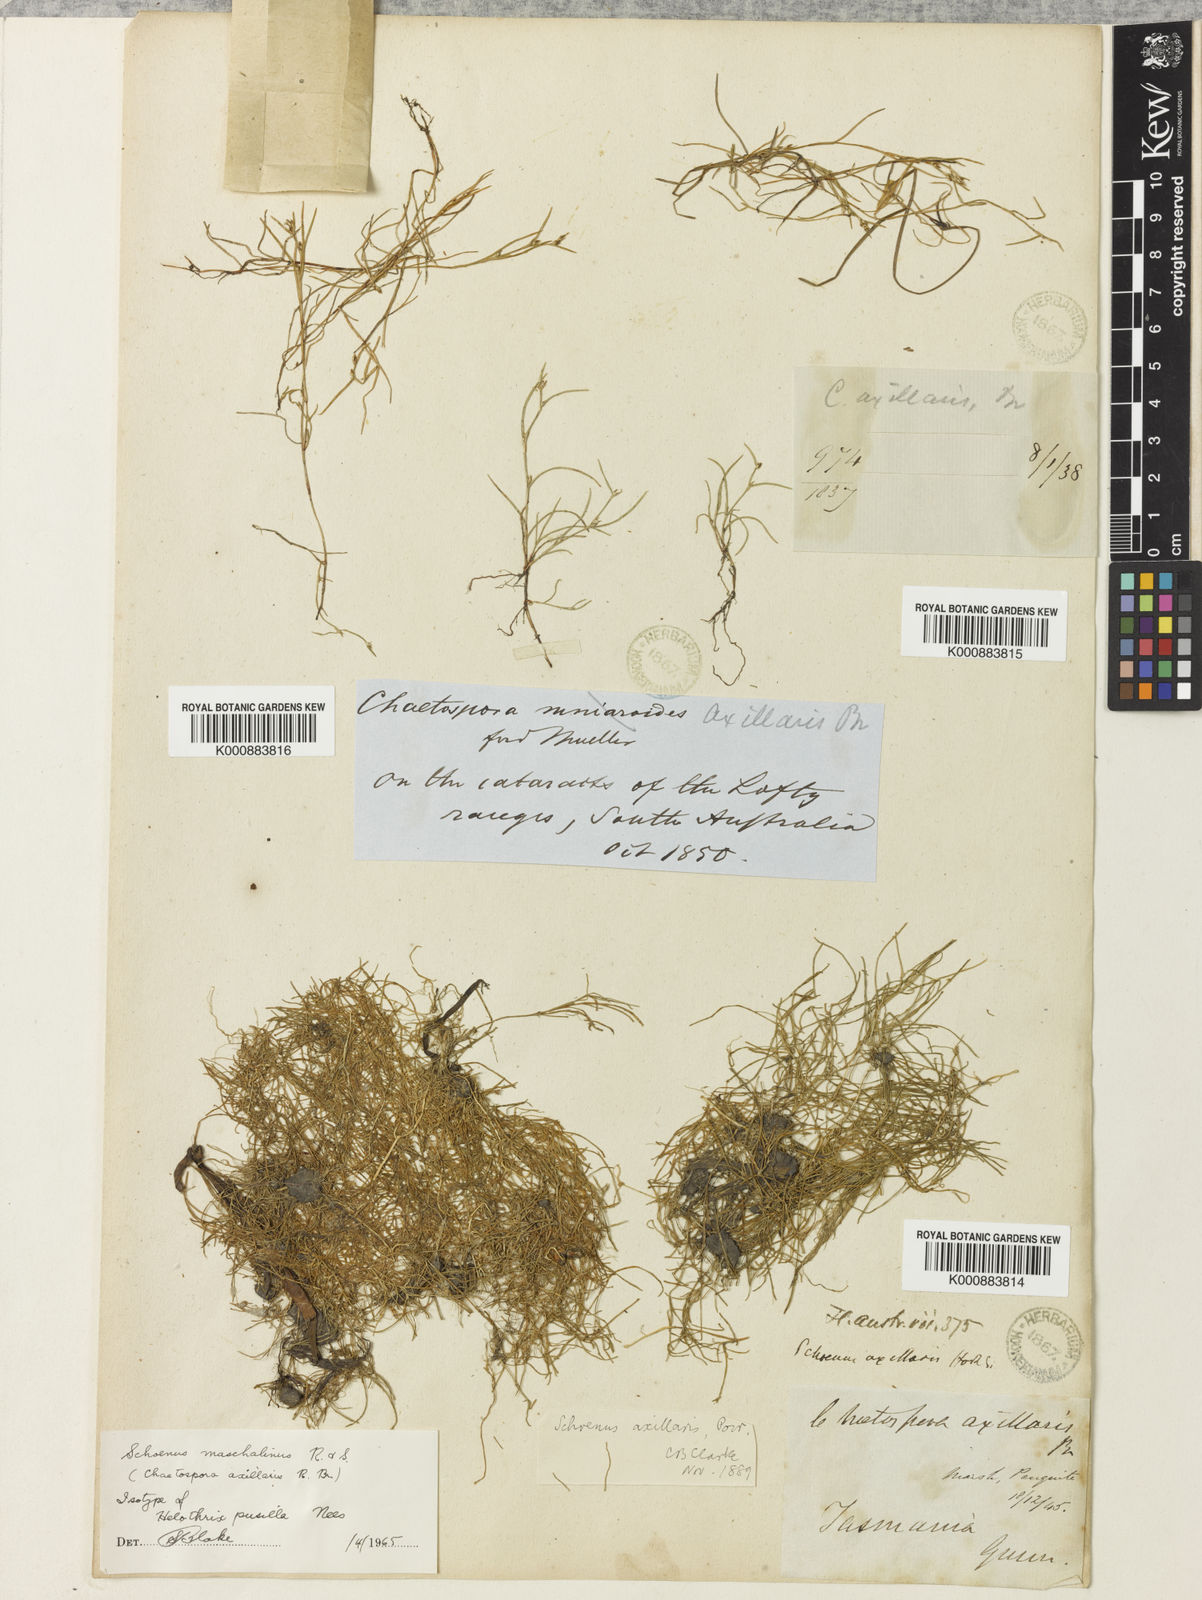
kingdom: Plantae
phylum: Tracheophyta
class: Liliopsida
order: Poales
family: Cyperaceae
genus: Schoenus
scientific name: Schoenus maschalinus
